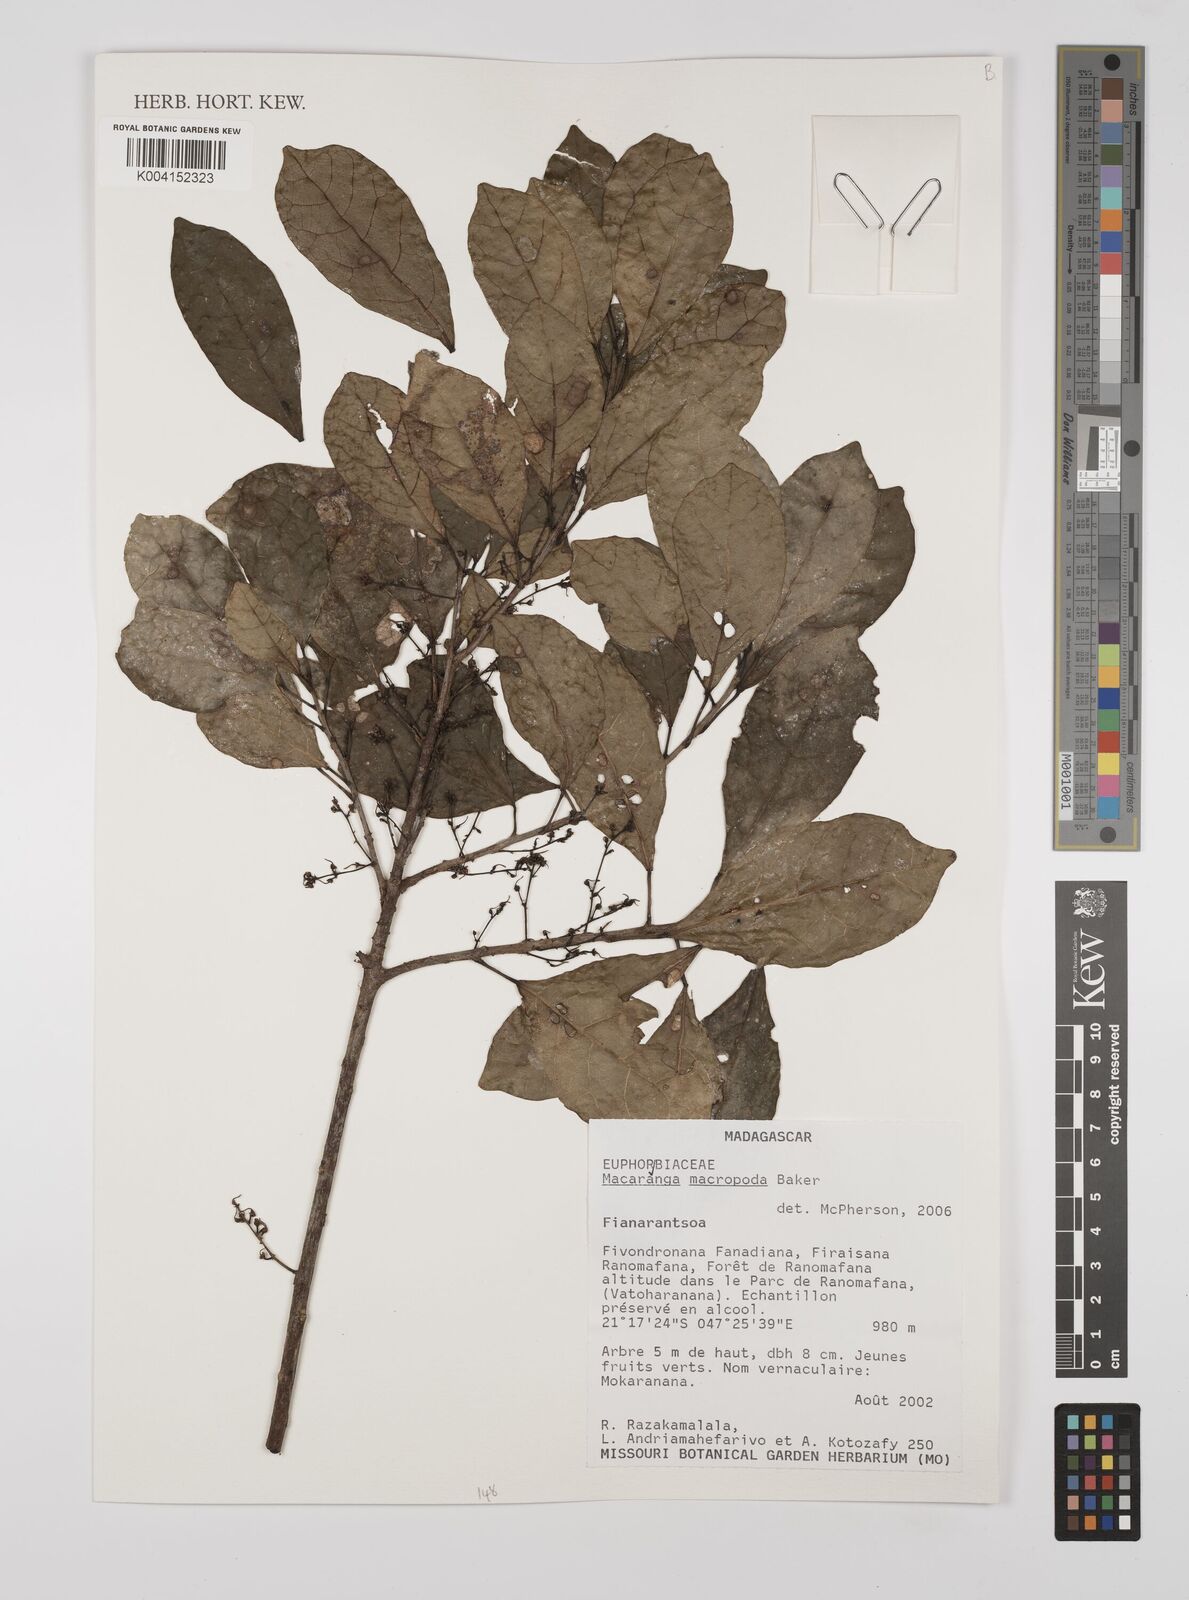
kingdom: Plantae
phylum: Tracheophyta
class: Magnoliopsida
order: Malpighiales
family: Euphorbiaceae
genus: Macaranga
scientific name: Macaranga macropoda
